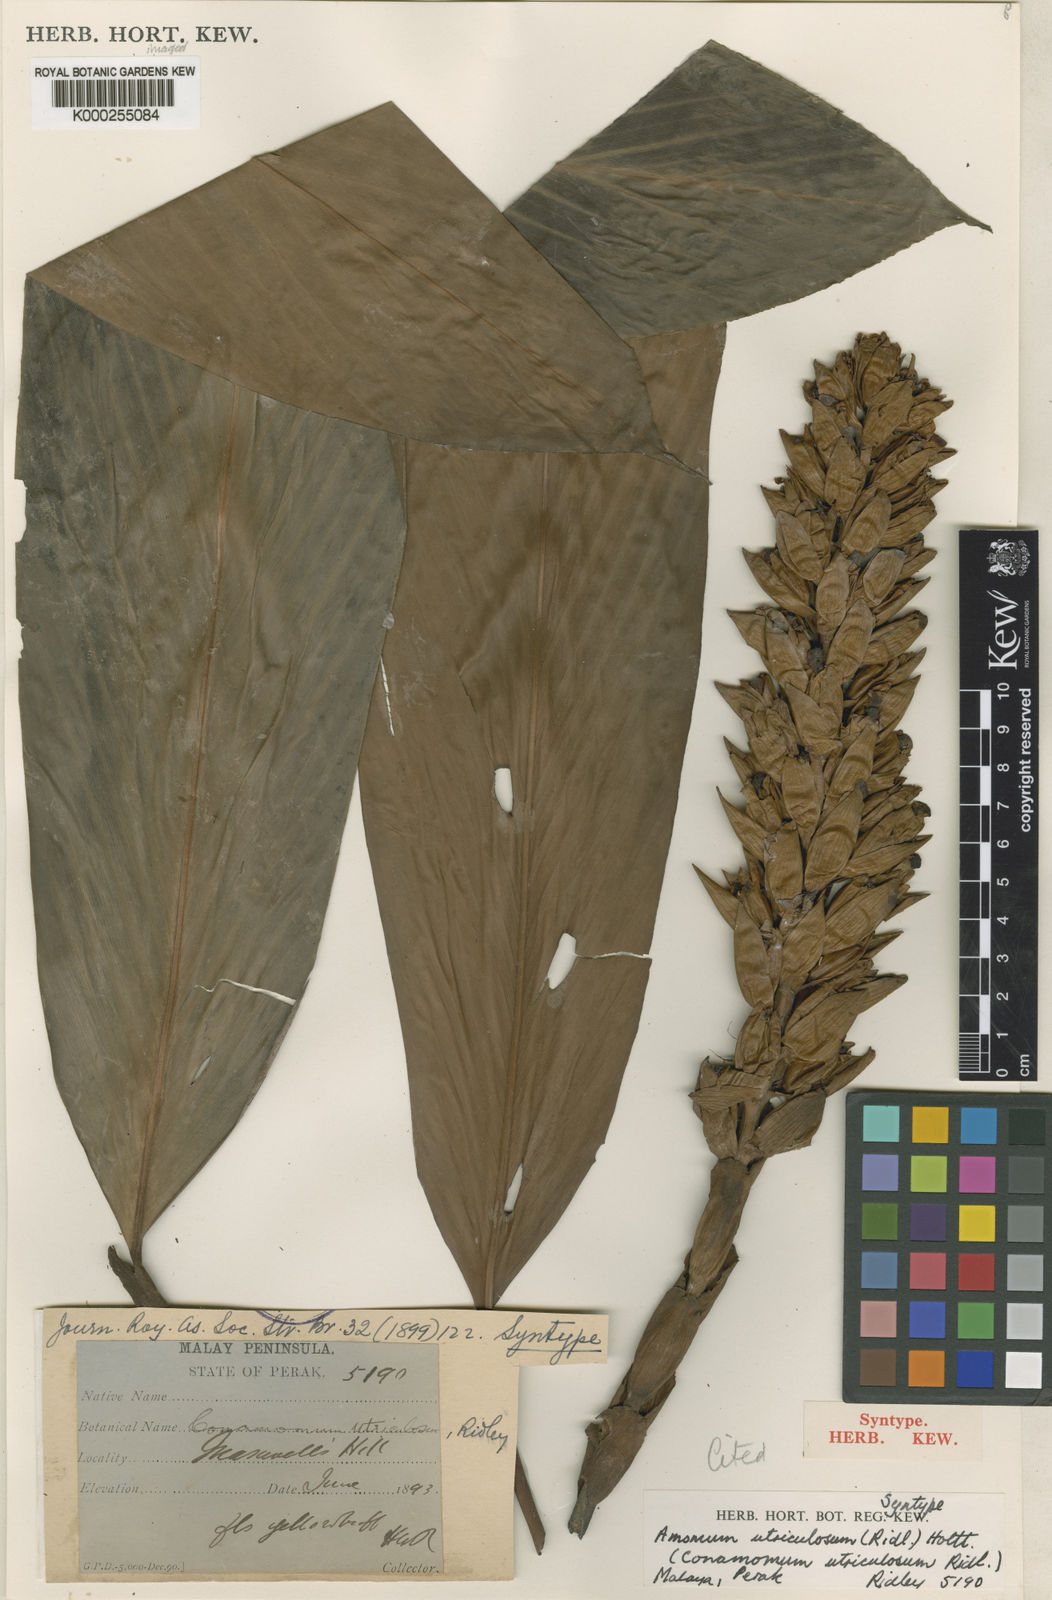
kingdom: Plantae
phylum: Tracheophyta
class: Liliopsida
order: Zingiberales
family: Zingiberaceae
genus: Conamomum
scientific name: Conamomum utriculosum
